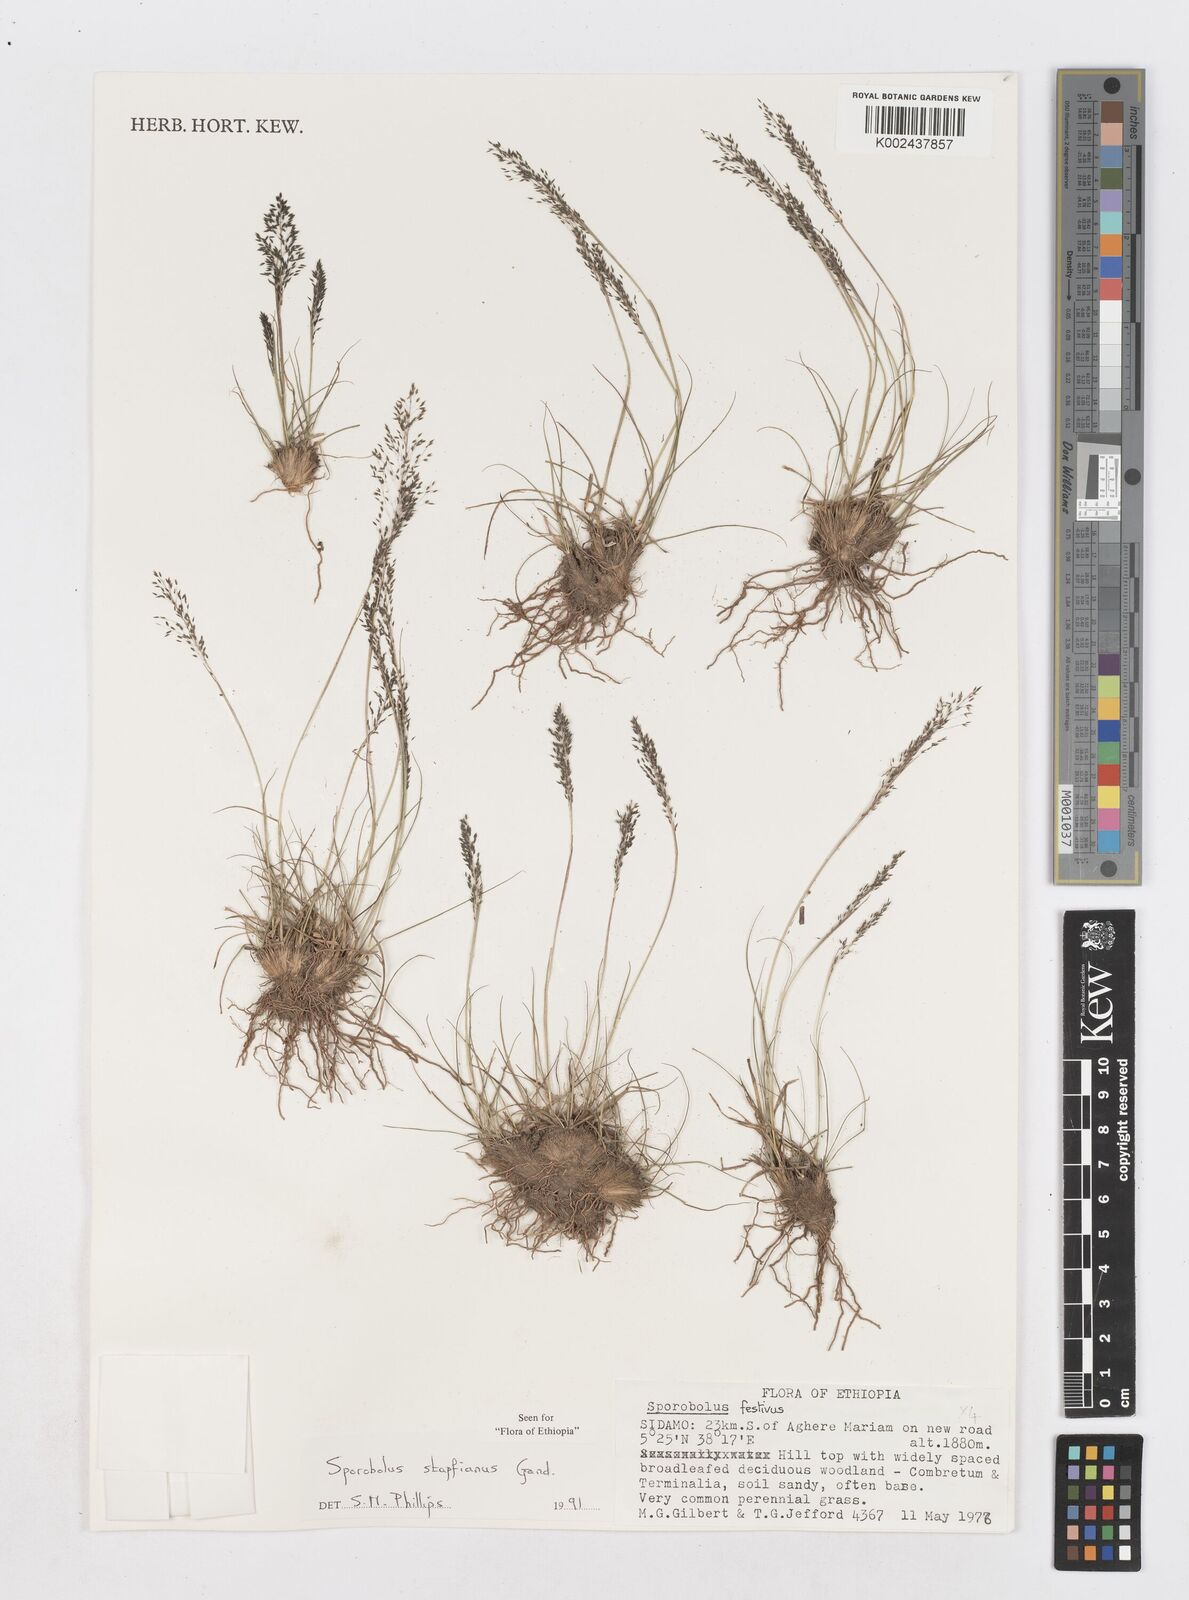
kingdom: Plantae
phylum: Tracheophyta
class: Liliopsida
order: Poales
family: Poaceae
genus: Sporobolus
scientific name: Sporobolus stapfianus
